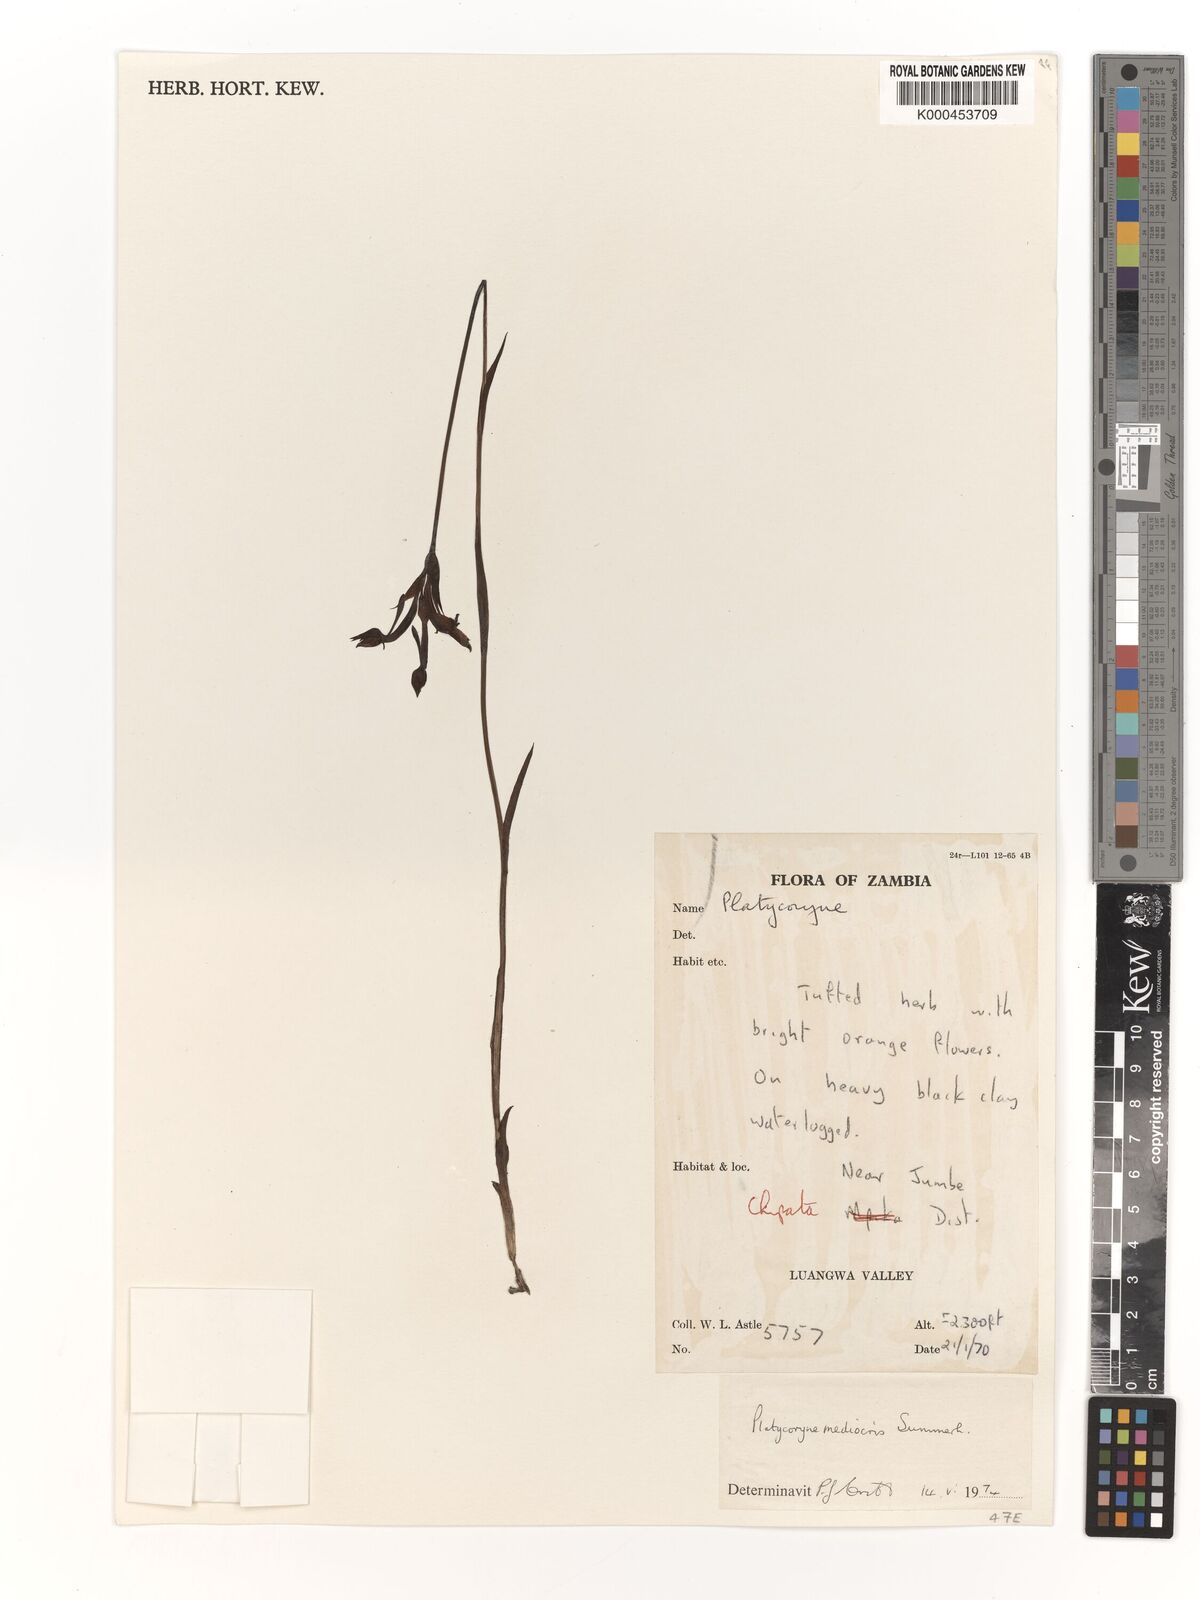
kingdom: Plantae
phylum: Tracheophyta
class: Liliopsida
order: Asparagales
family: Orchidaceae
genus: Platycoryne
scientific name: Platycoryne mediocris
